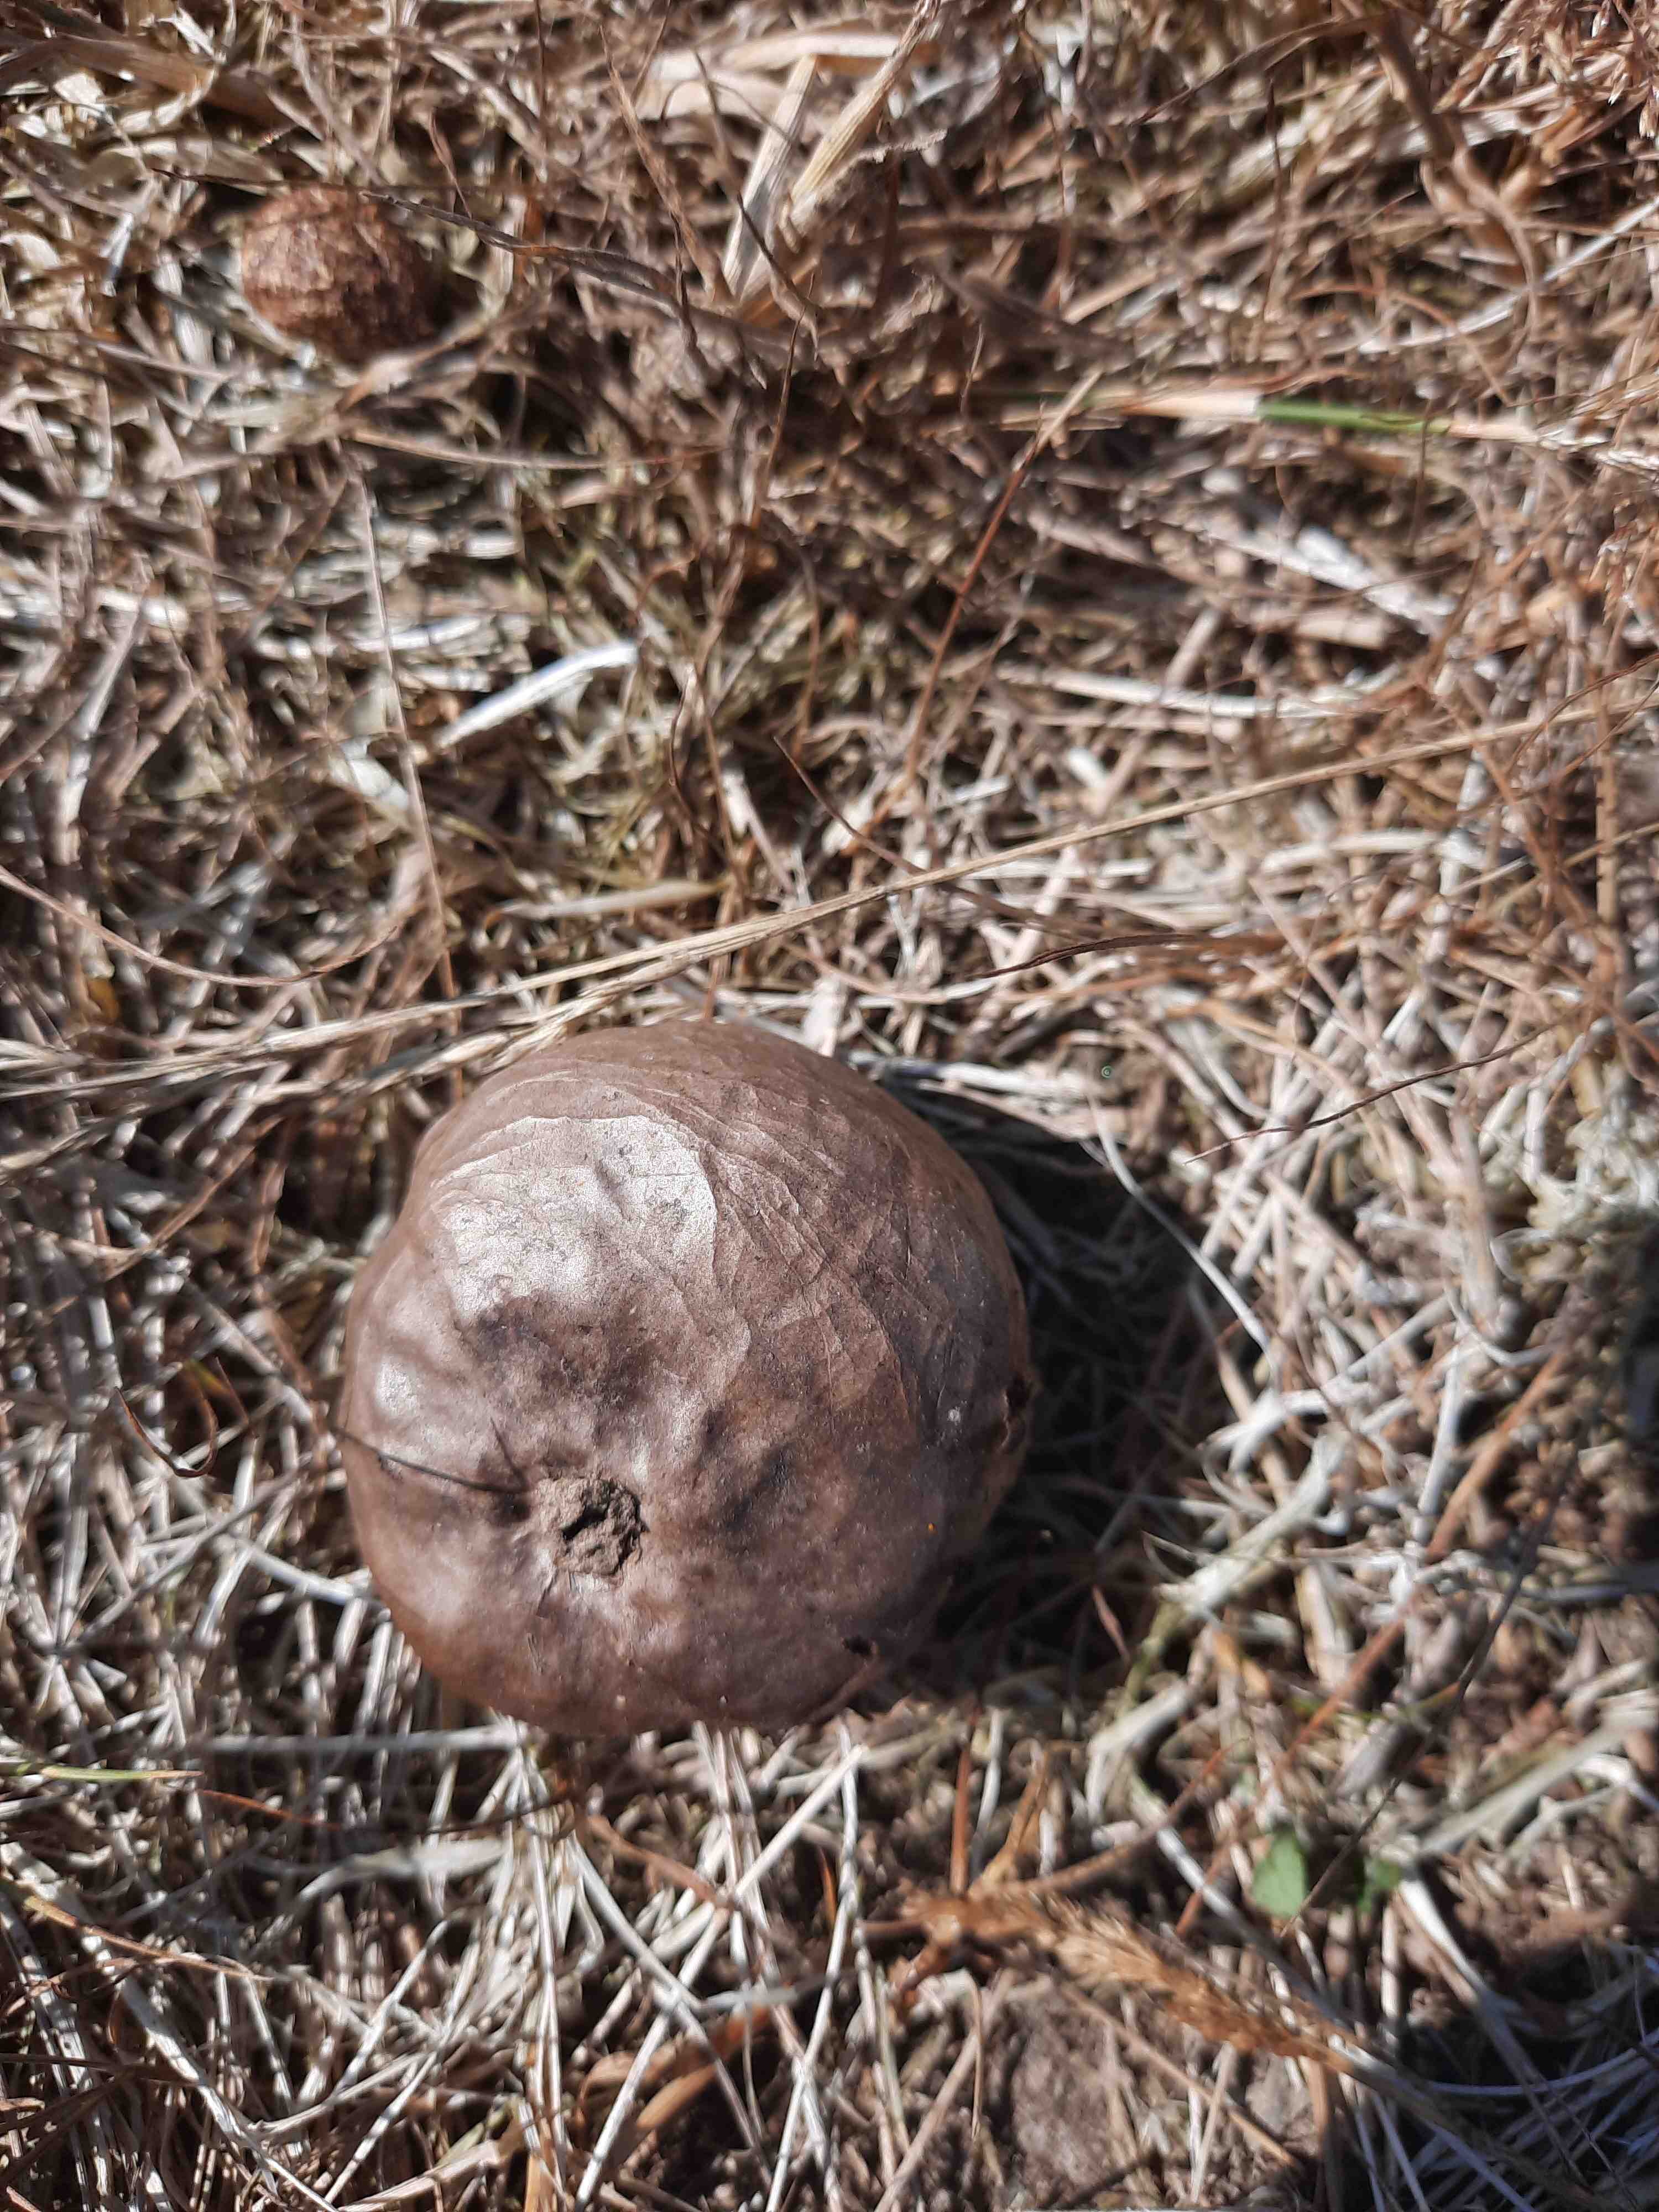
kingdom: Fungi
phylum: Basidiomycota
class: Agaricomycetes
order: Agaricales
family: Lycoperdaceae
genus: Bovista
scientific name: Bovista nigrescens
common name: sortagtig bovist
